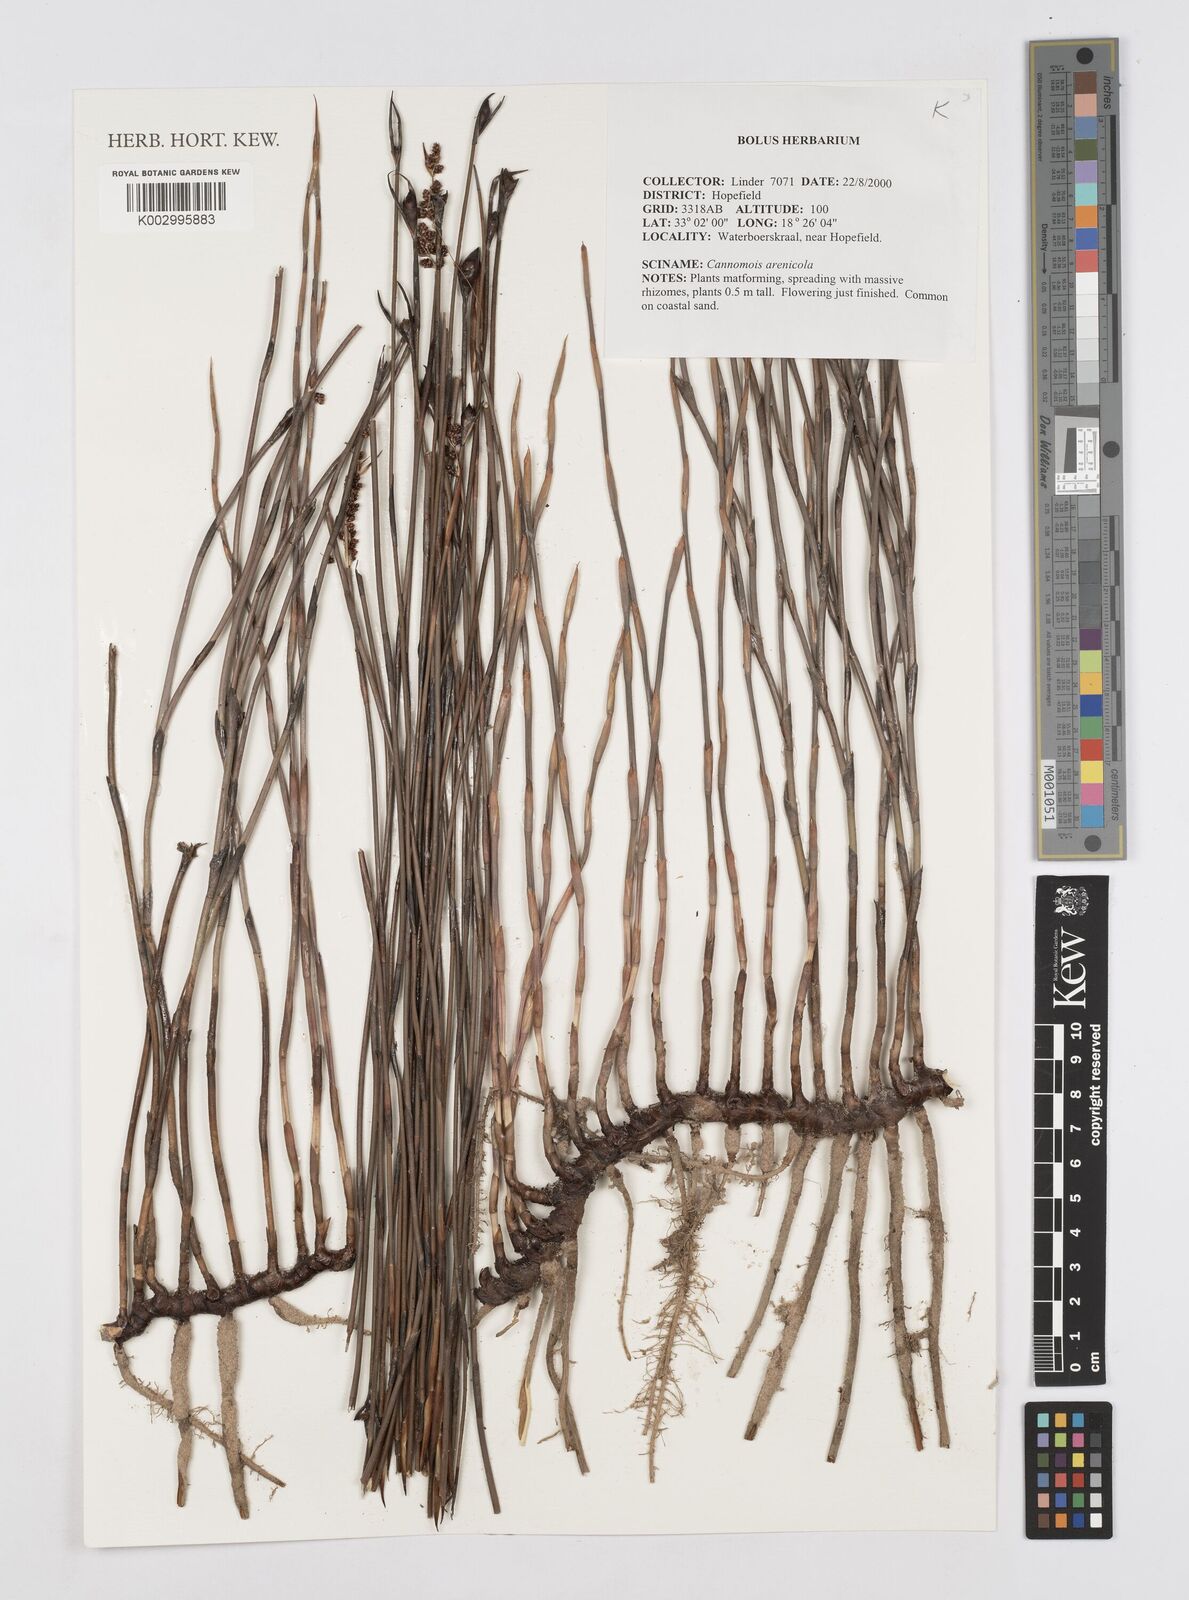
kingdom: Plantae
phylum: Tracheophyta
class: Liliopsida
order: Poales
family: Restionaceae
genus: Cannomois
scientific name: Cannomois arenicola
